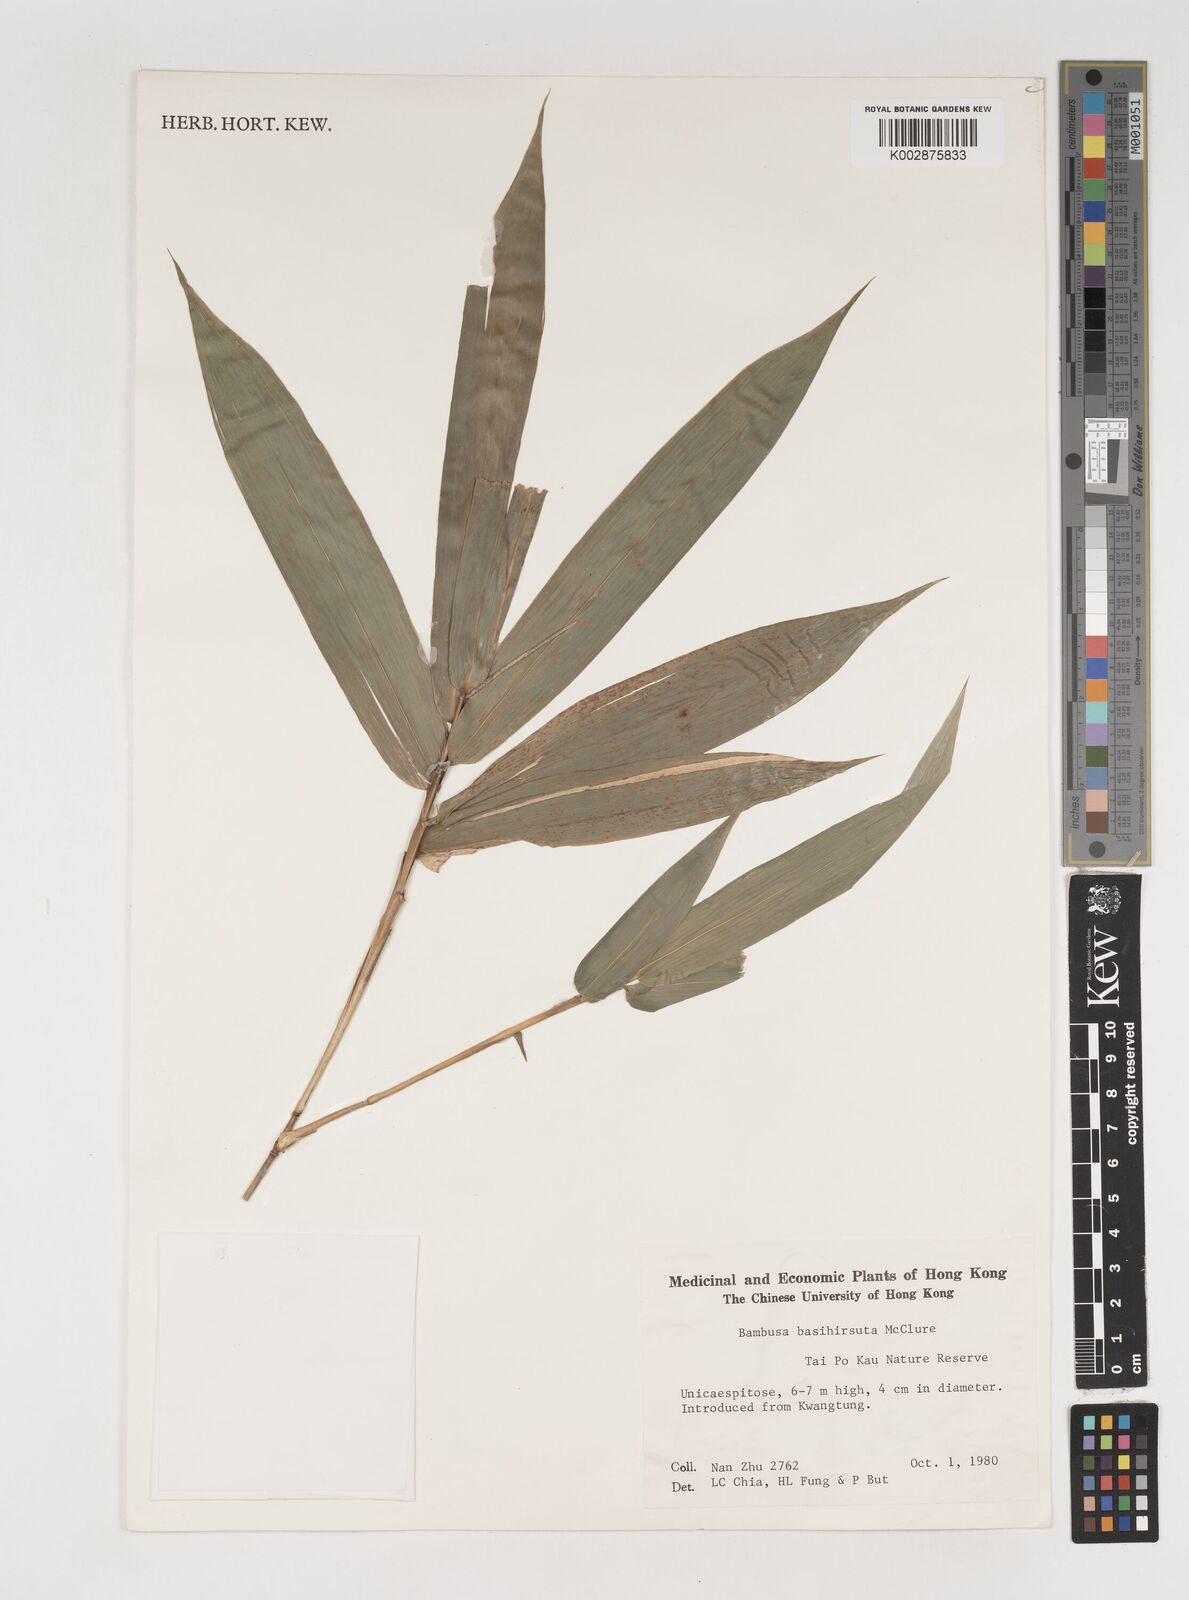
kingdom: Plantae
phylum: Tracheophyta
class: Liliopsida
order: Poales
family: Poaceae
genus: Bambusa
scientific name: Bambusa basihirsuta
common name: Pin bamboo
